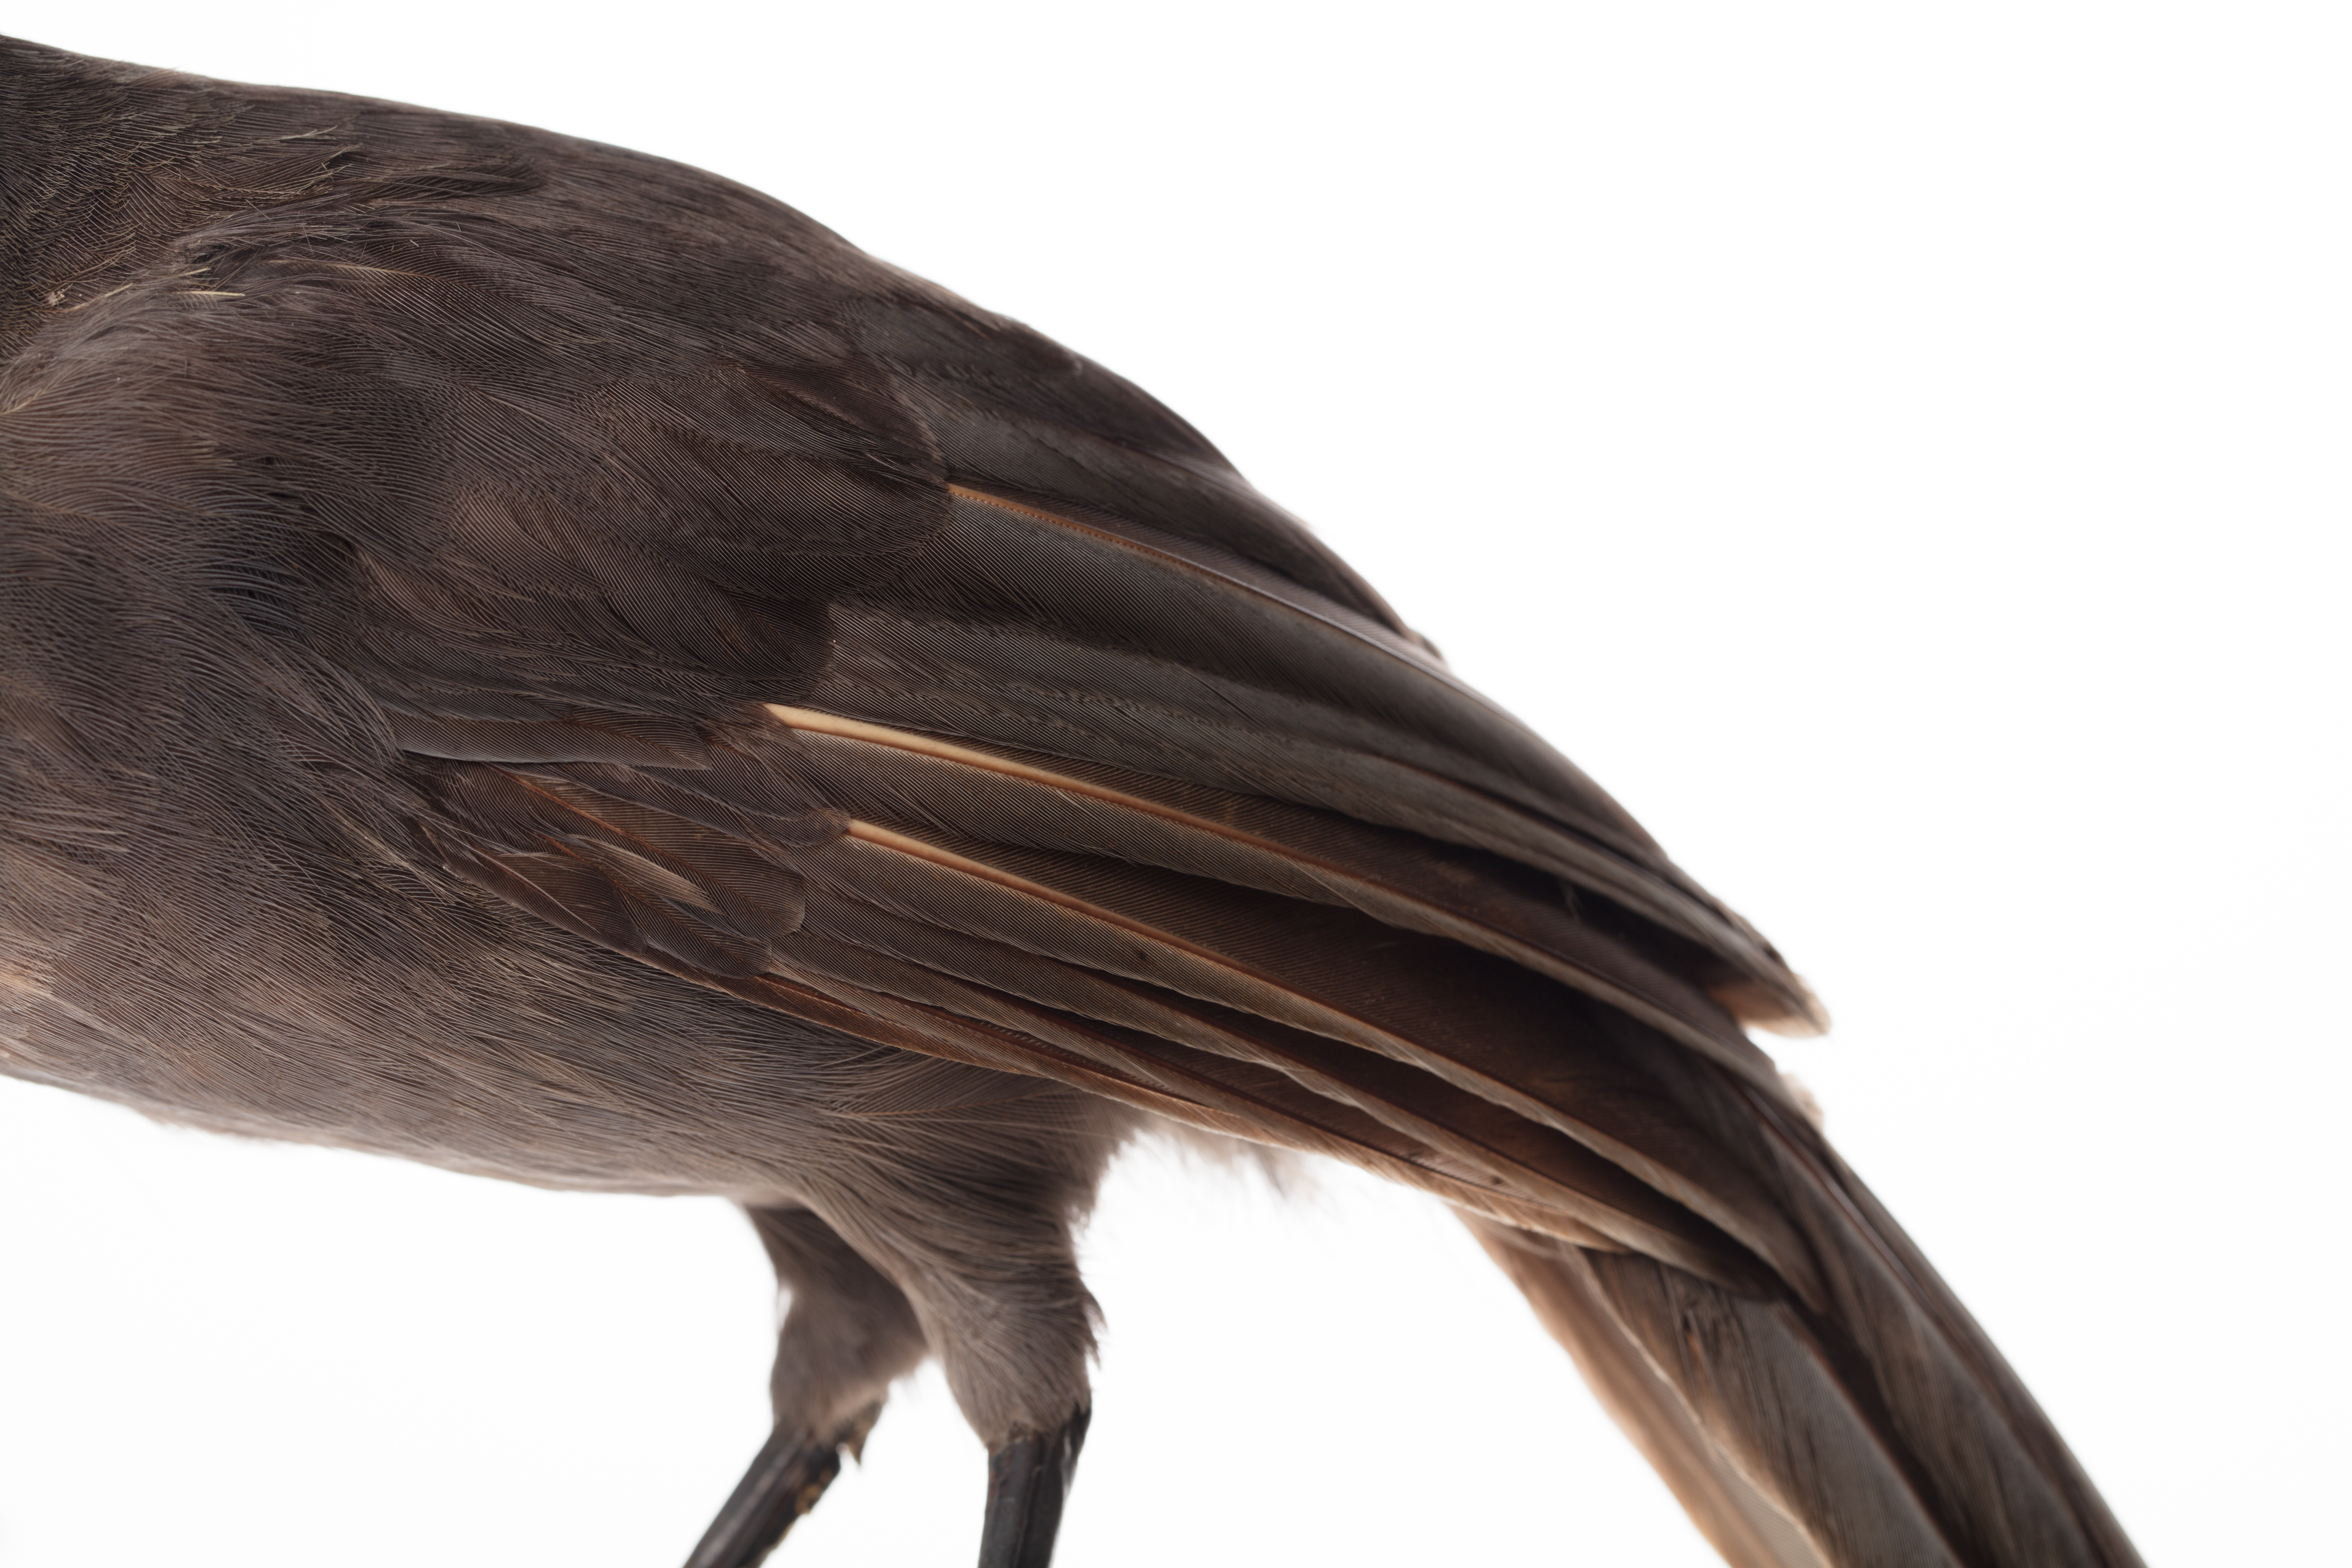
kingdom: Animalia
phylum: Chordata
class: Aves
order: Passeriformes
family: Callaeatidae
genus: Callaeas
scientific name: Callaeas cinereus
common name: South island kokako
